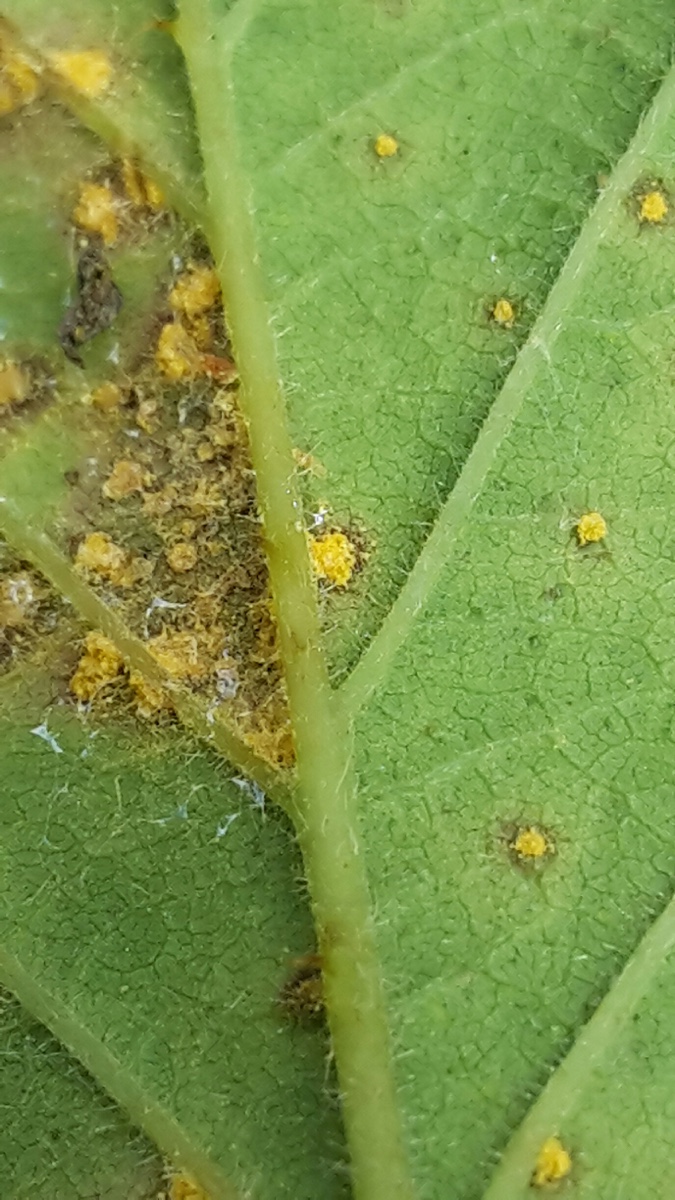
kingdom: Fungi
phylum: Basidiomycota
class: Pucciniomycetes
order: Pucciniales
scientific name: Pucciniales
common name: rustsvampeordenen
